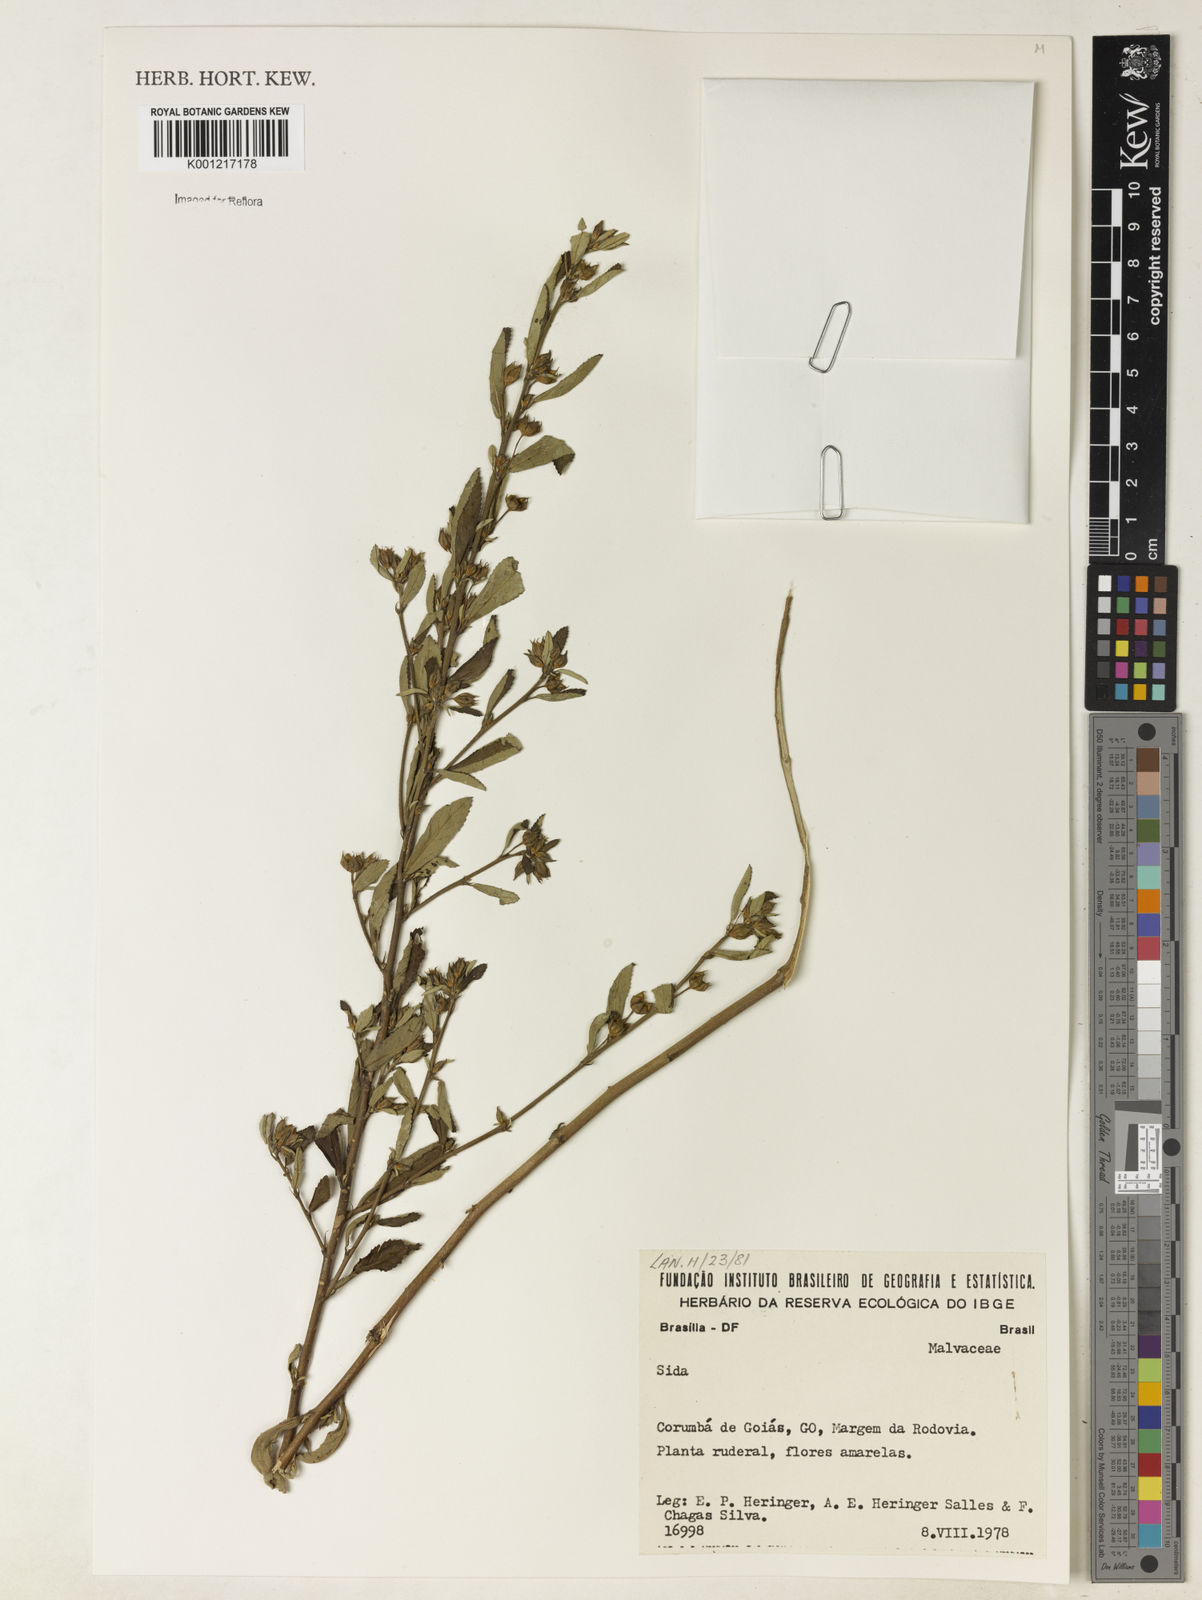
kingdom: Plantae
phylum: Tracheophyta
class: Magnoliopsida
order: Malvales
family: Malvaceae
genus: Sida
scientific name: Sida
